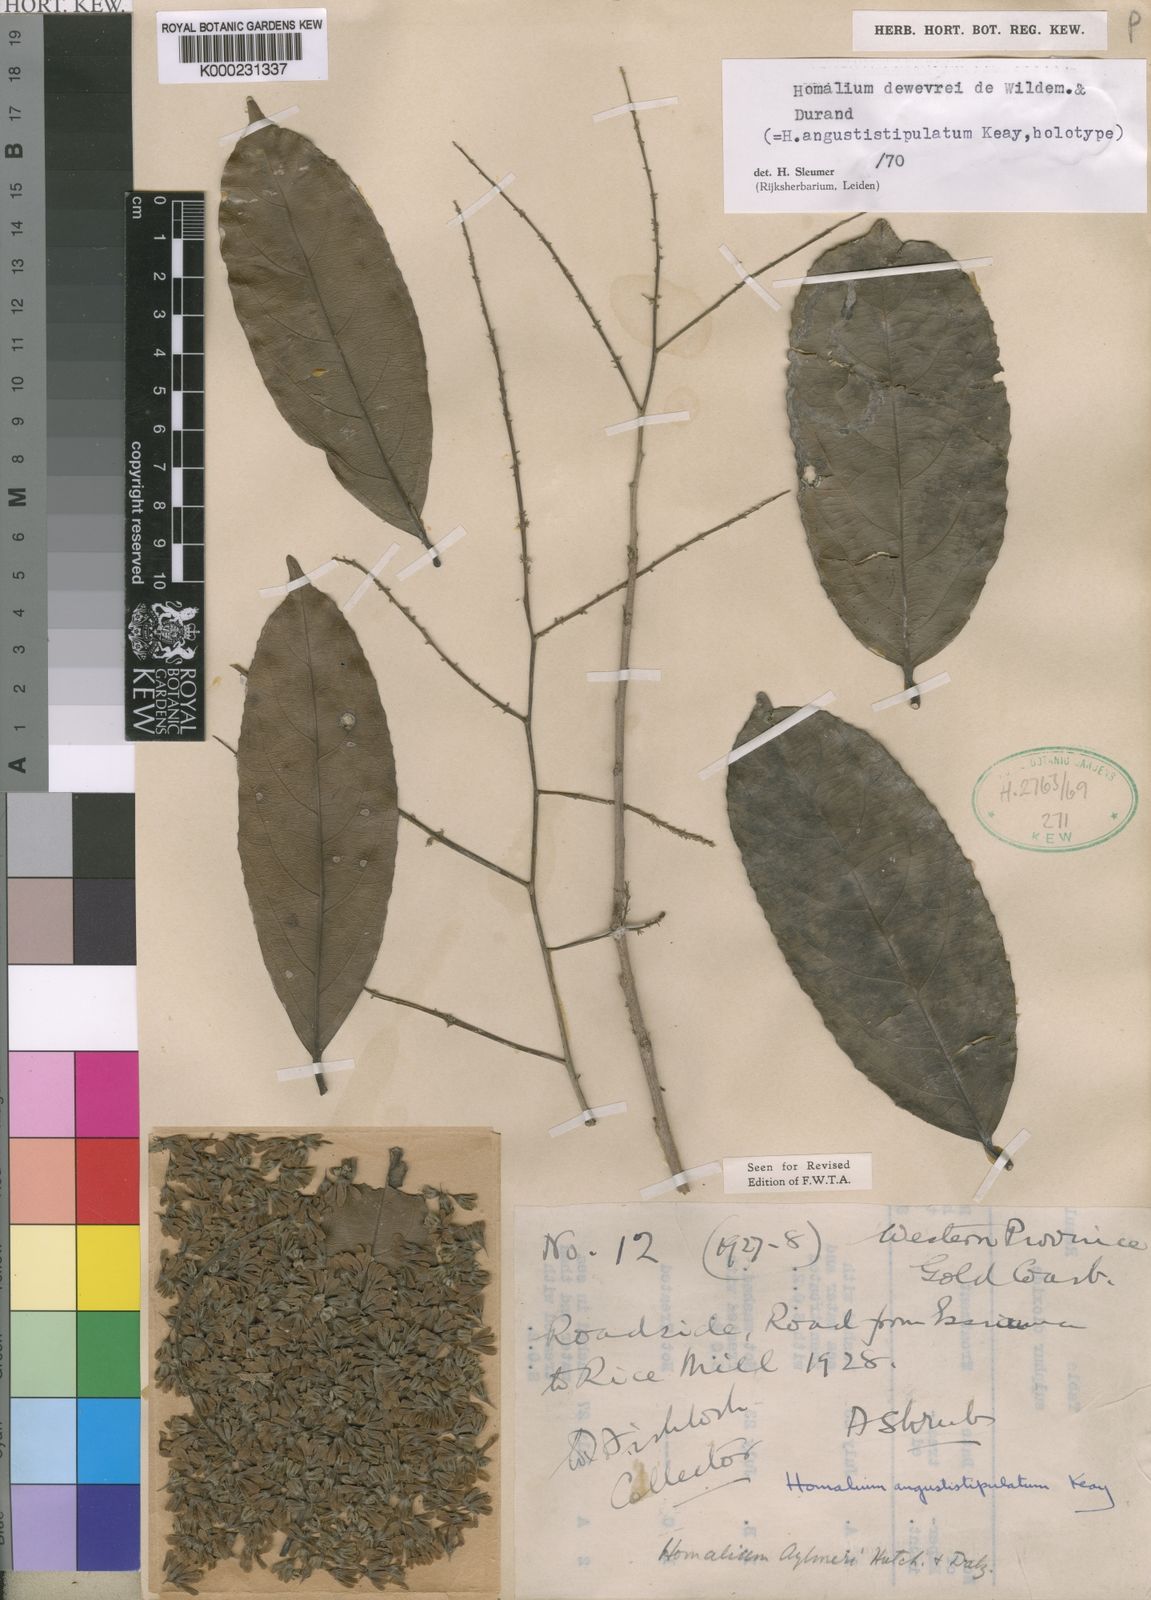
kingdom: Plantae
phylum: Tracheophyta
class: Magnoliopsida
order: Malpighiales
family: Salicaceae
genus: Homalium
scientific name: Homalium dewevrei
